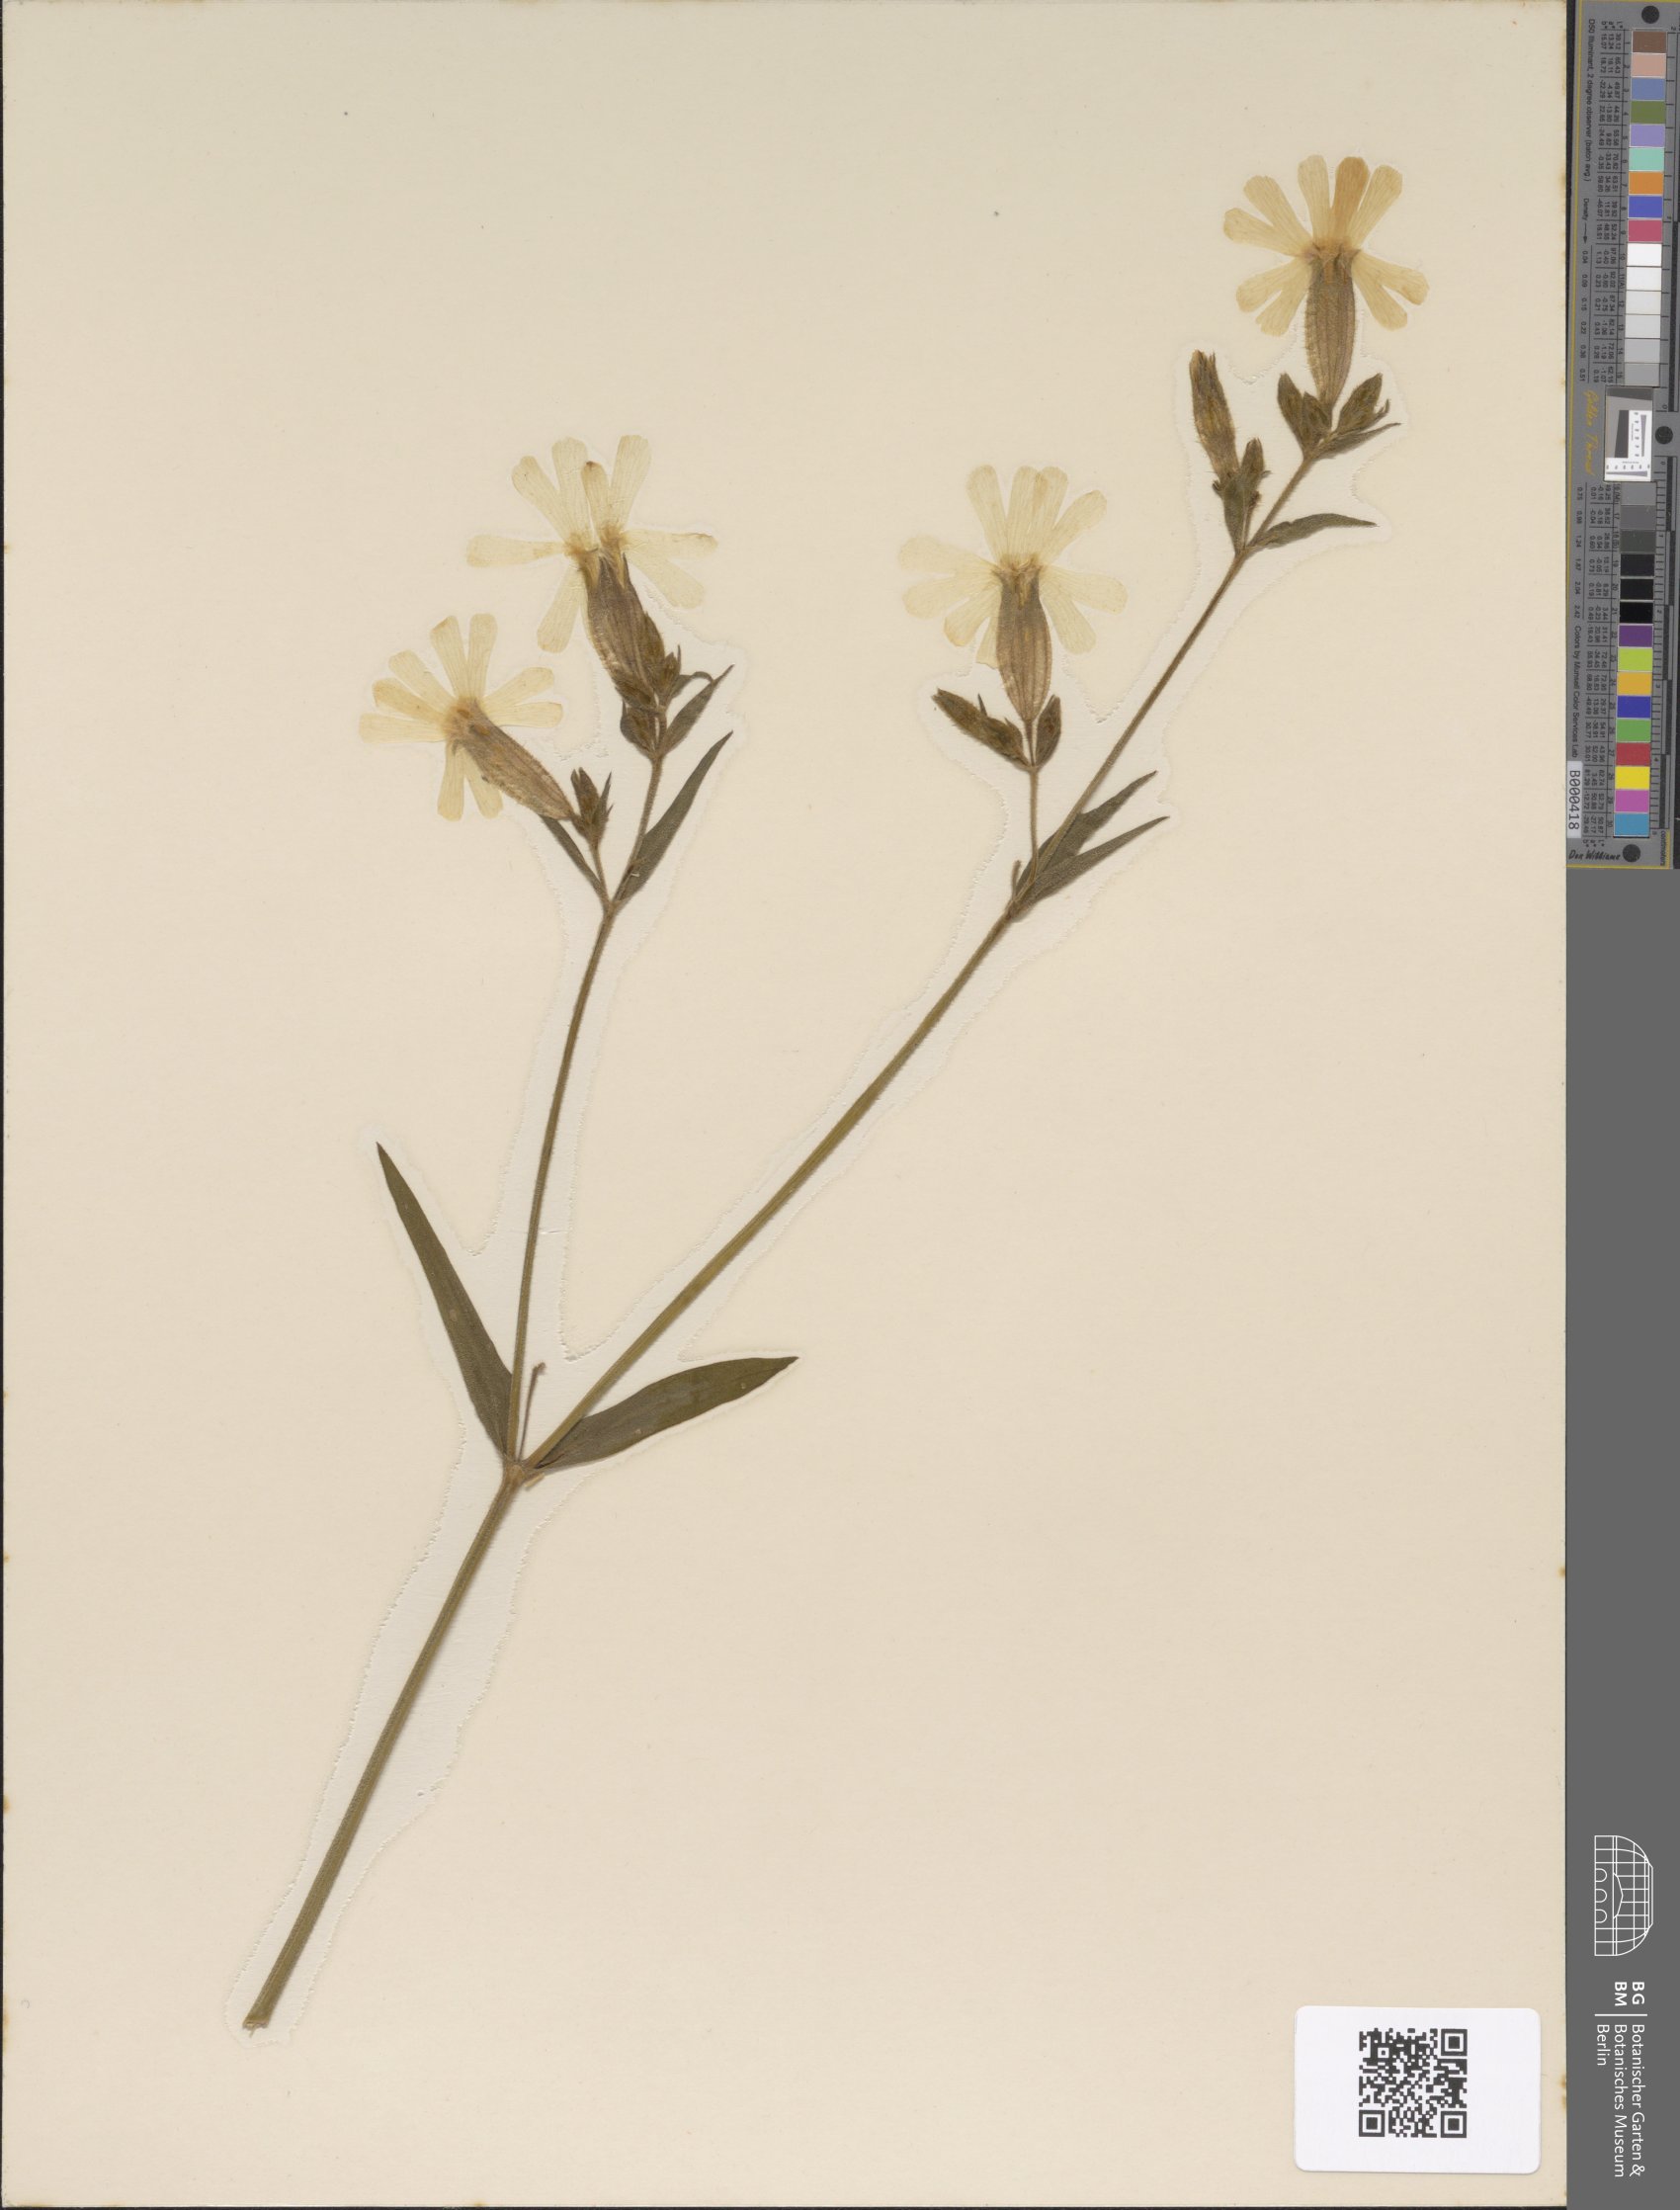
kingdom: Plantae
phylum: Tracheophyta
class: Magnoliopsida
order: Caryophyllales
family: Caryophyllaceae
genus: Silene
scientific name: Silene latifolia
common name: White campion
